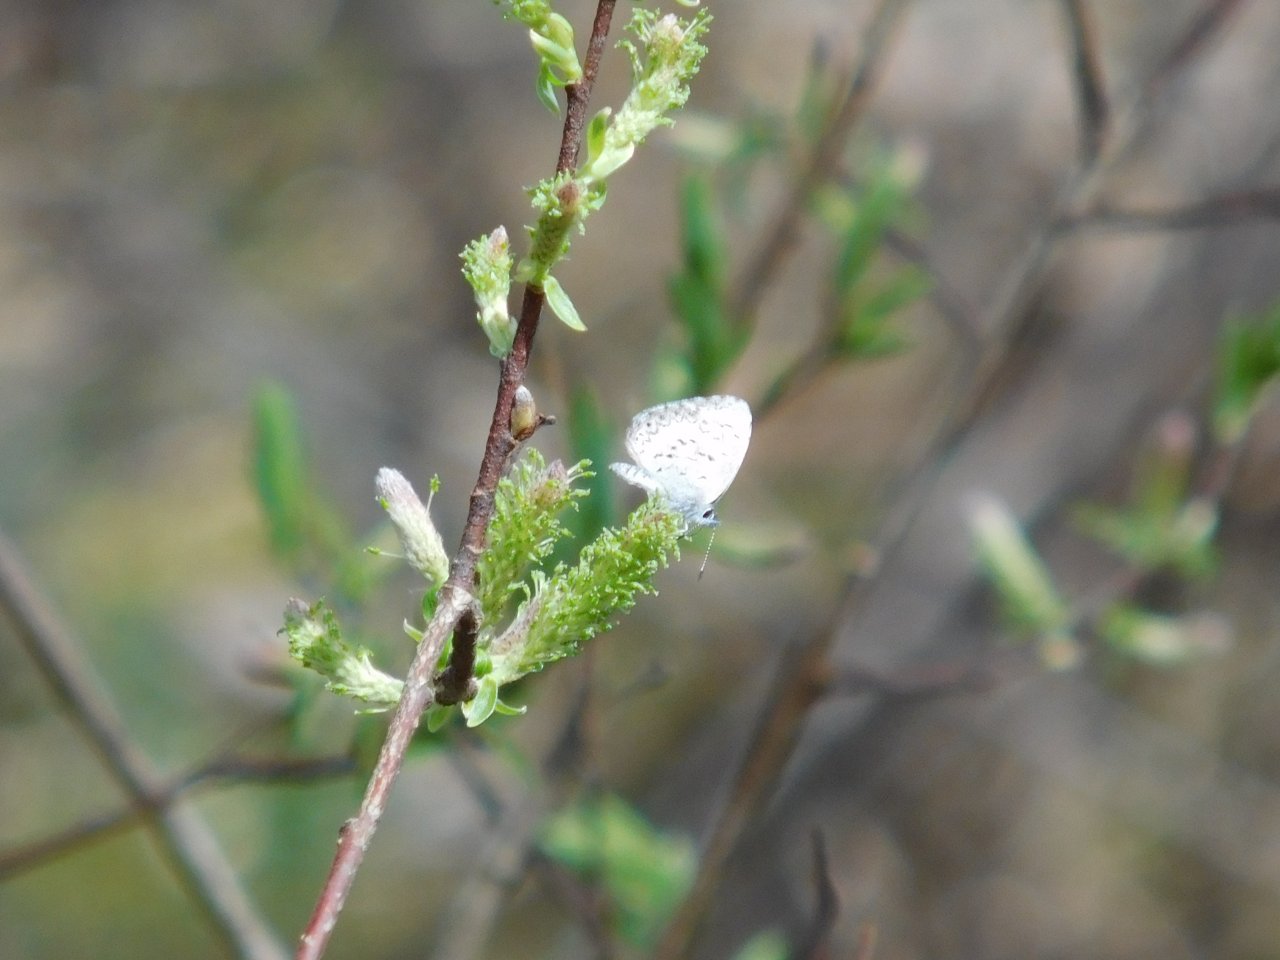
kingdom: Animalia
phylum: Arthropoda
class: Insecta
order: Lepidoptera
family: Lycaenidae
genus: Celastrina
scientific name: Celastrina lucia
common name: Northern Spring Azure
